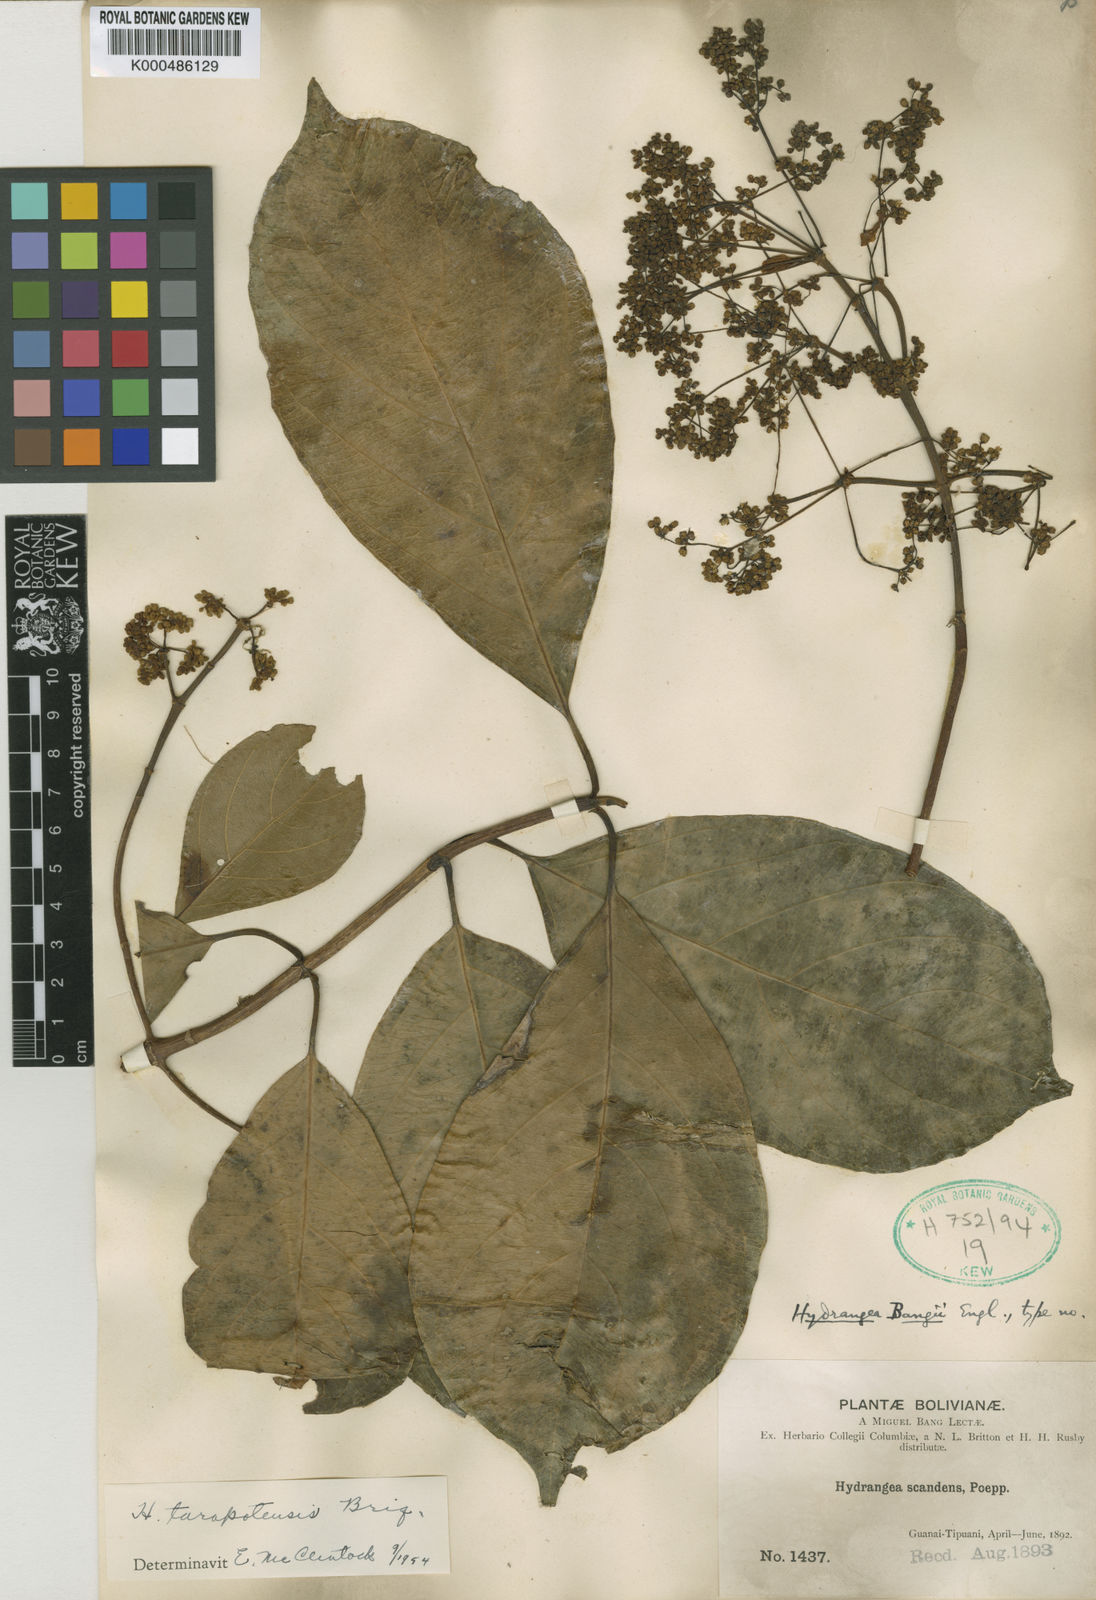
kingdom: Plantae
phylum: Tracheophyta
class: Magnoliopsida
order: Cornales
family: Hydrangeaceae
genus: Hydrangea
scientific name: Hydrangea tarapotensis
